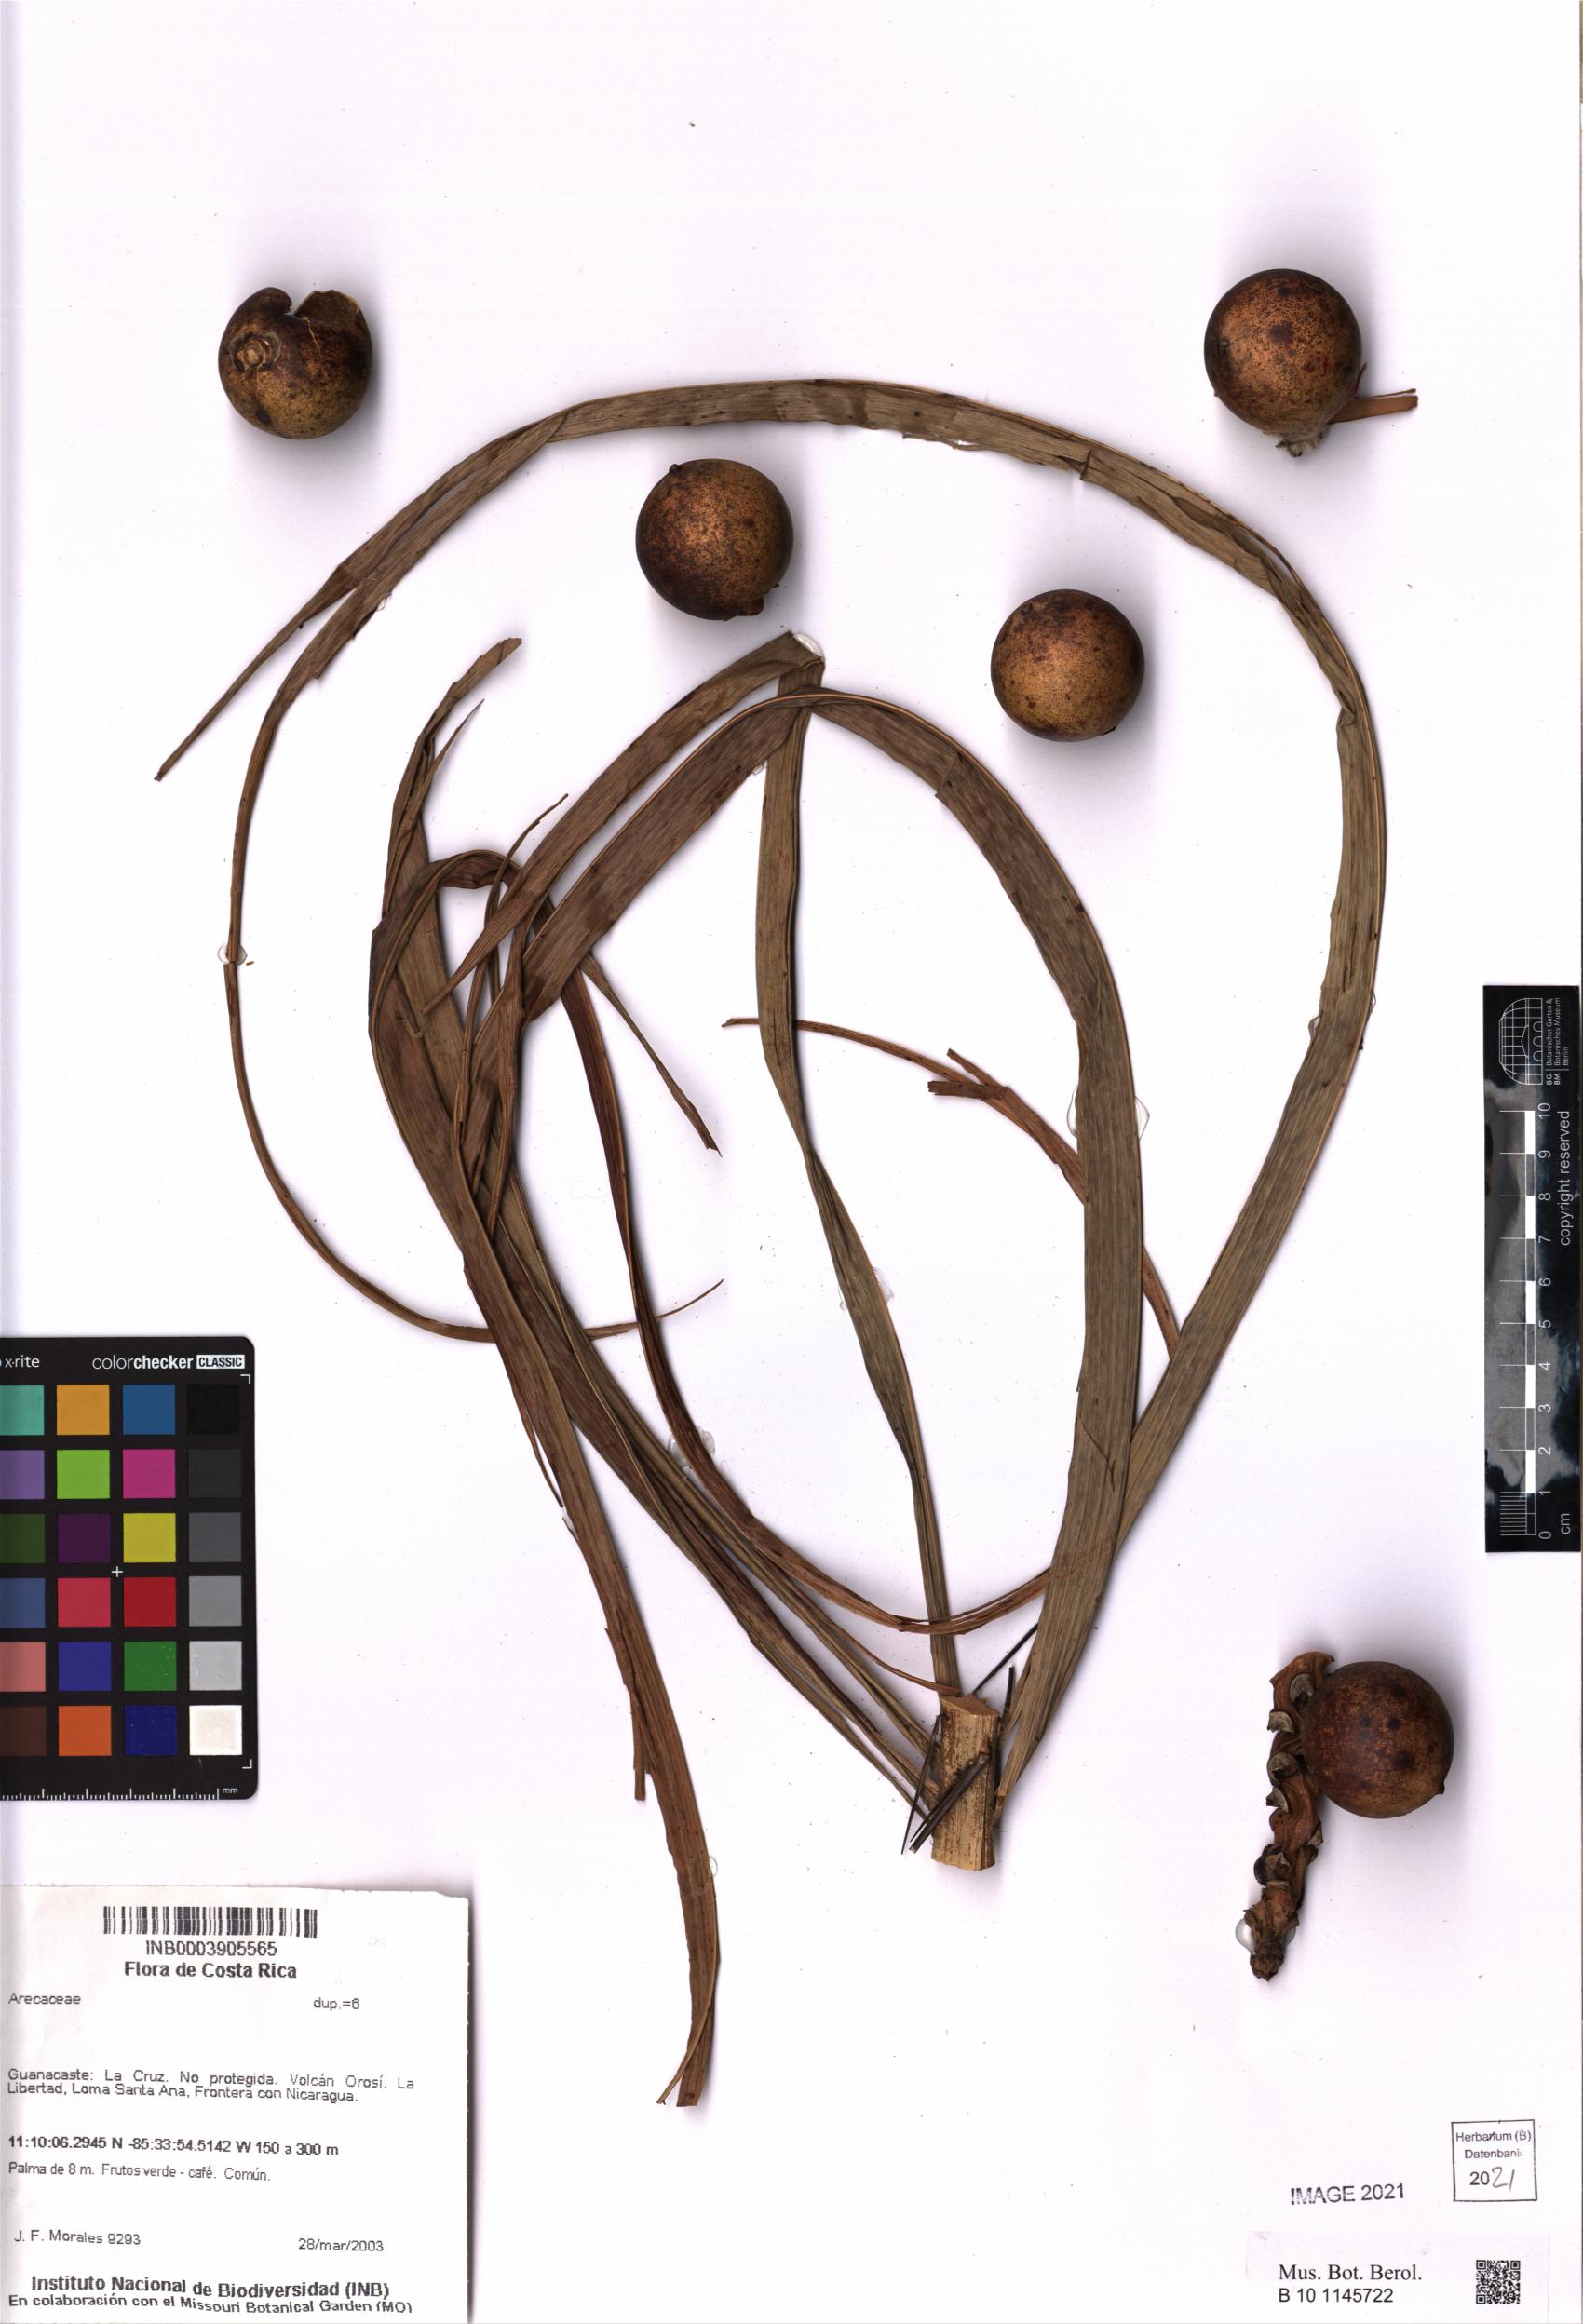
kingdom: Plantae
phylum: Tracheophyta
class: Liliopsida
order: Arecales
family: Arecaceae
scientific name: Arecaceae
